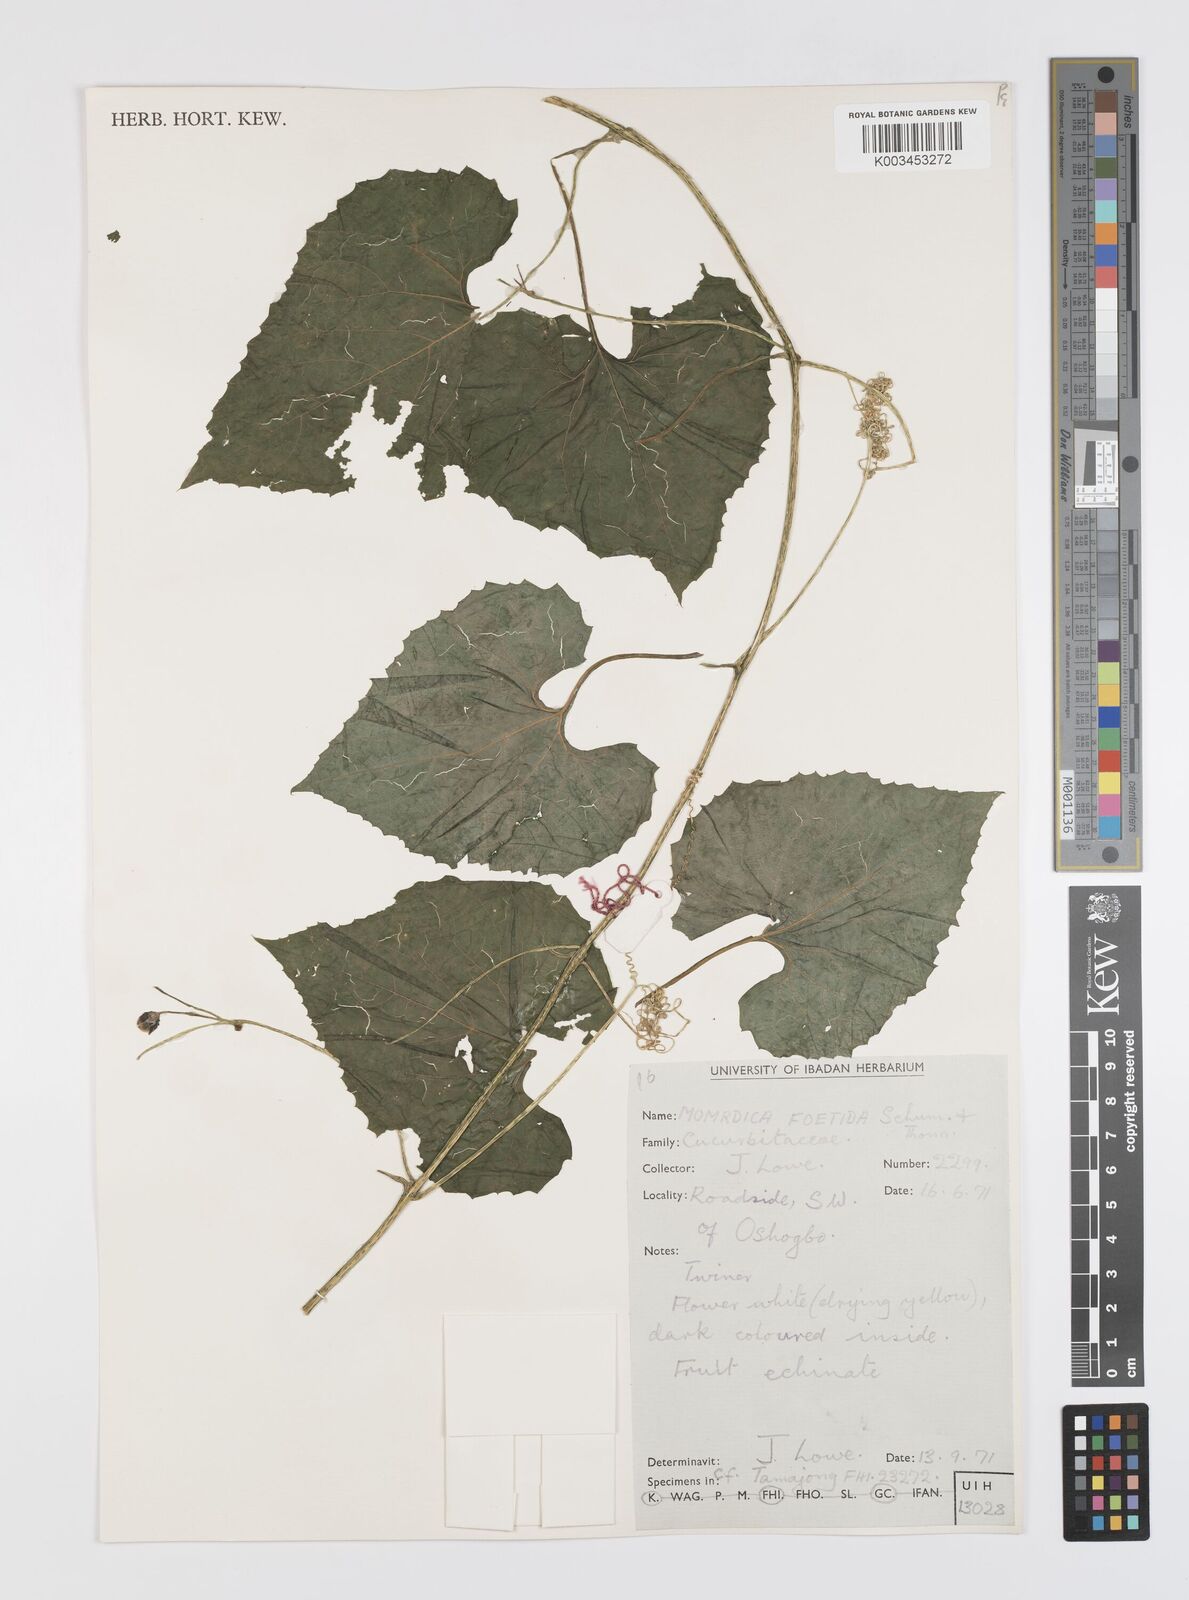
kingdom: Plantae
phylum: Tracheophyta
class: Magnoliopsida
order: Cucurbitales
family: Cucurbitaceae
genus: Momordica
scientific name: Momordica foetida
